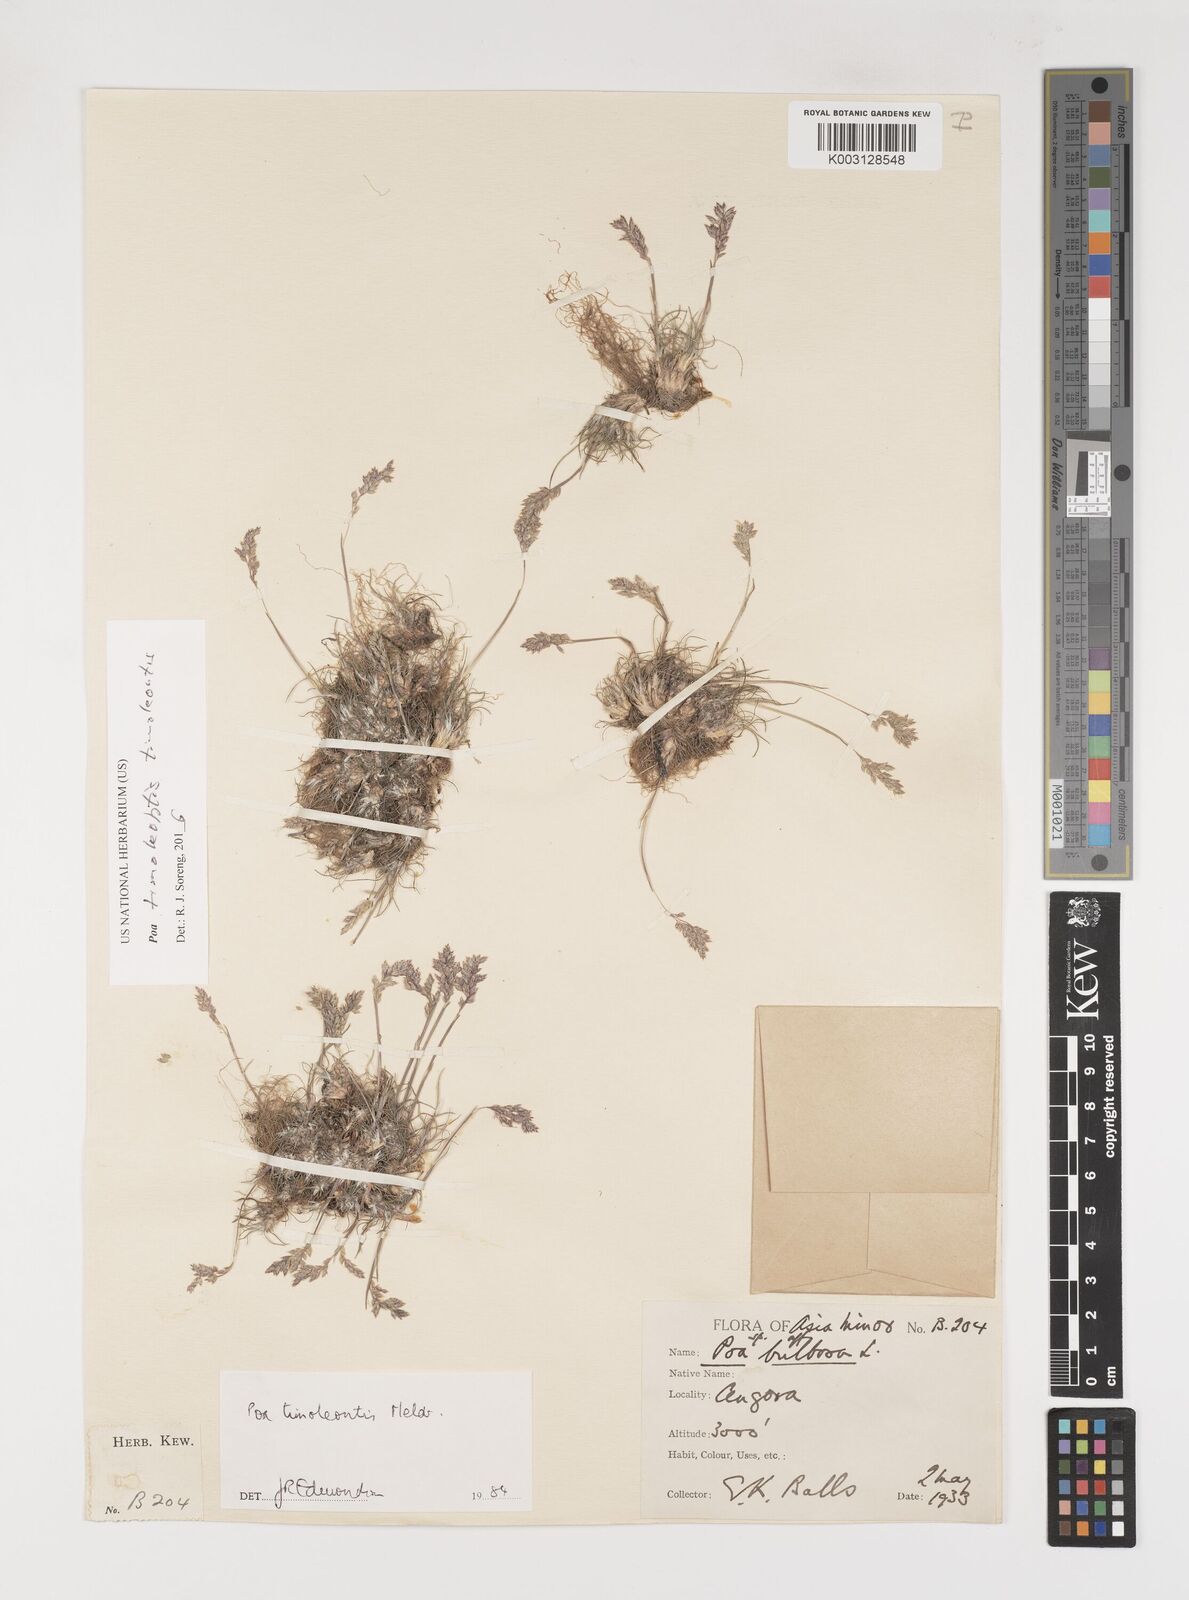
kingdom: Plantae
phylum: Tracheophyta
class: Liliopsida
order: Poales
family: Poaceae
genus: Poa
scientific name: Poa timoleontis
